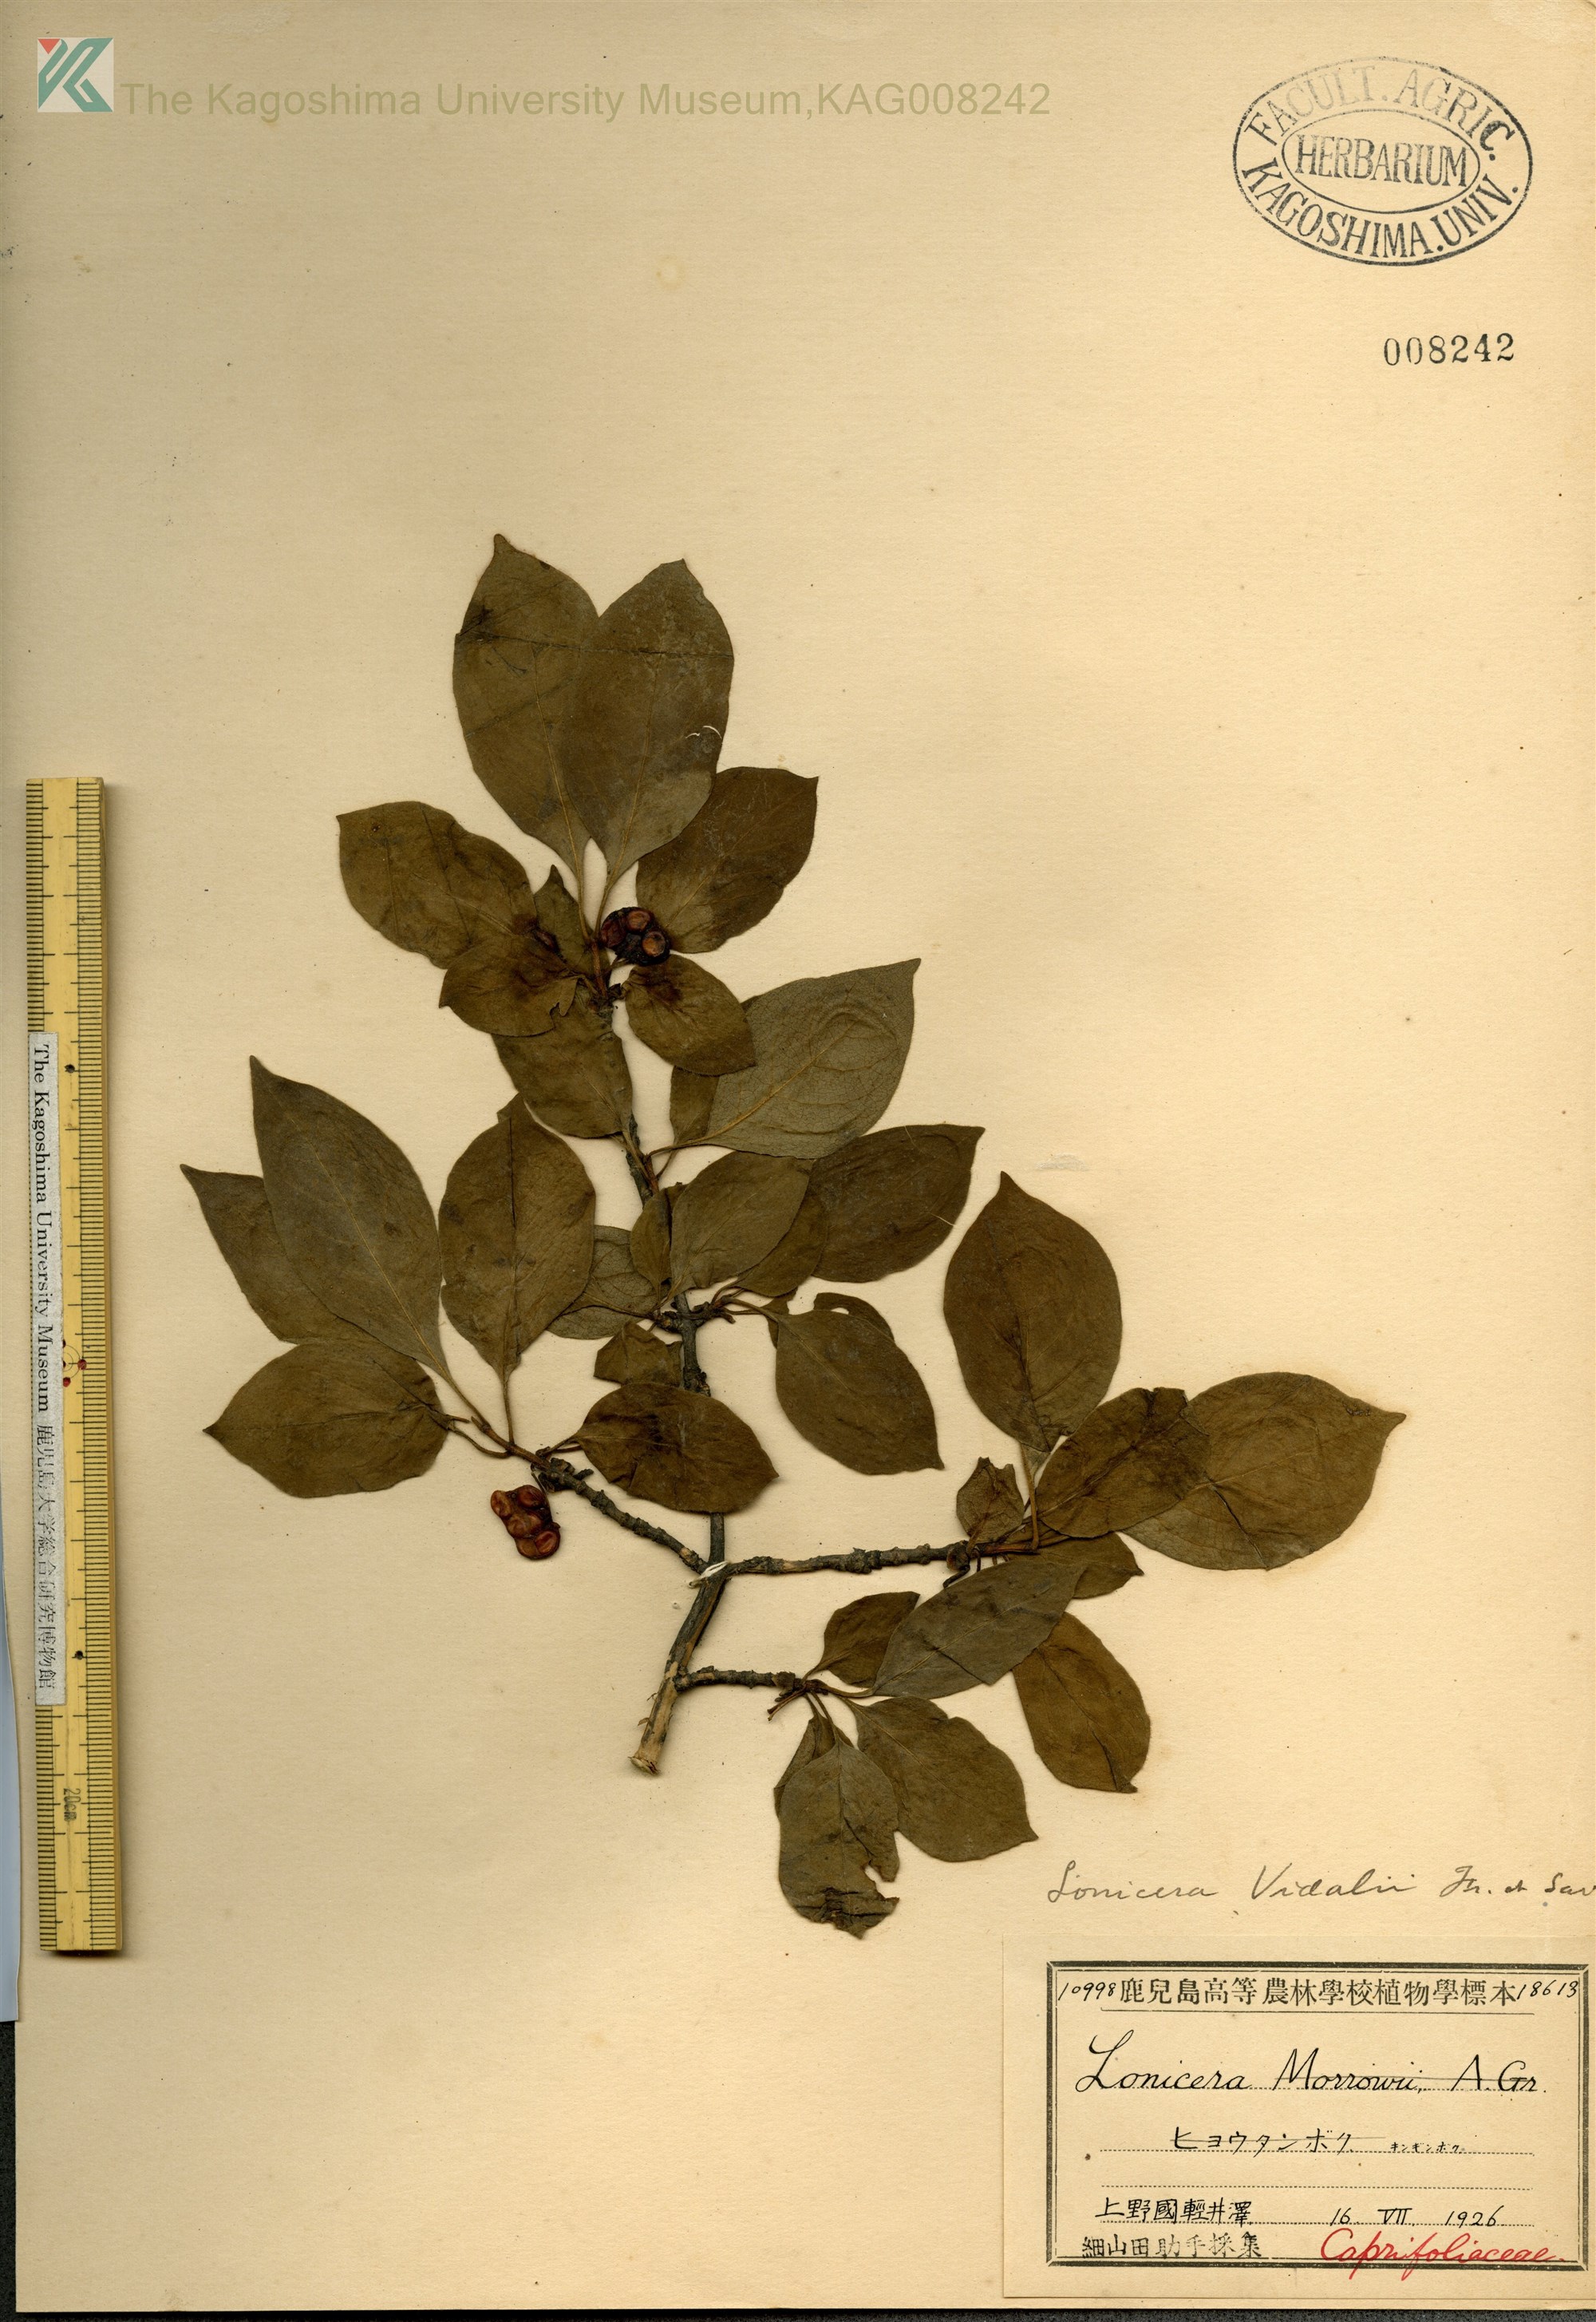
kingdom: Plantae
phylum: Tracheophyta
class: Magnoliopsida
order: Dipsacales
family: Caprifoliaceae
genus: Lonicera
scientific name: Lonicera vidalii
